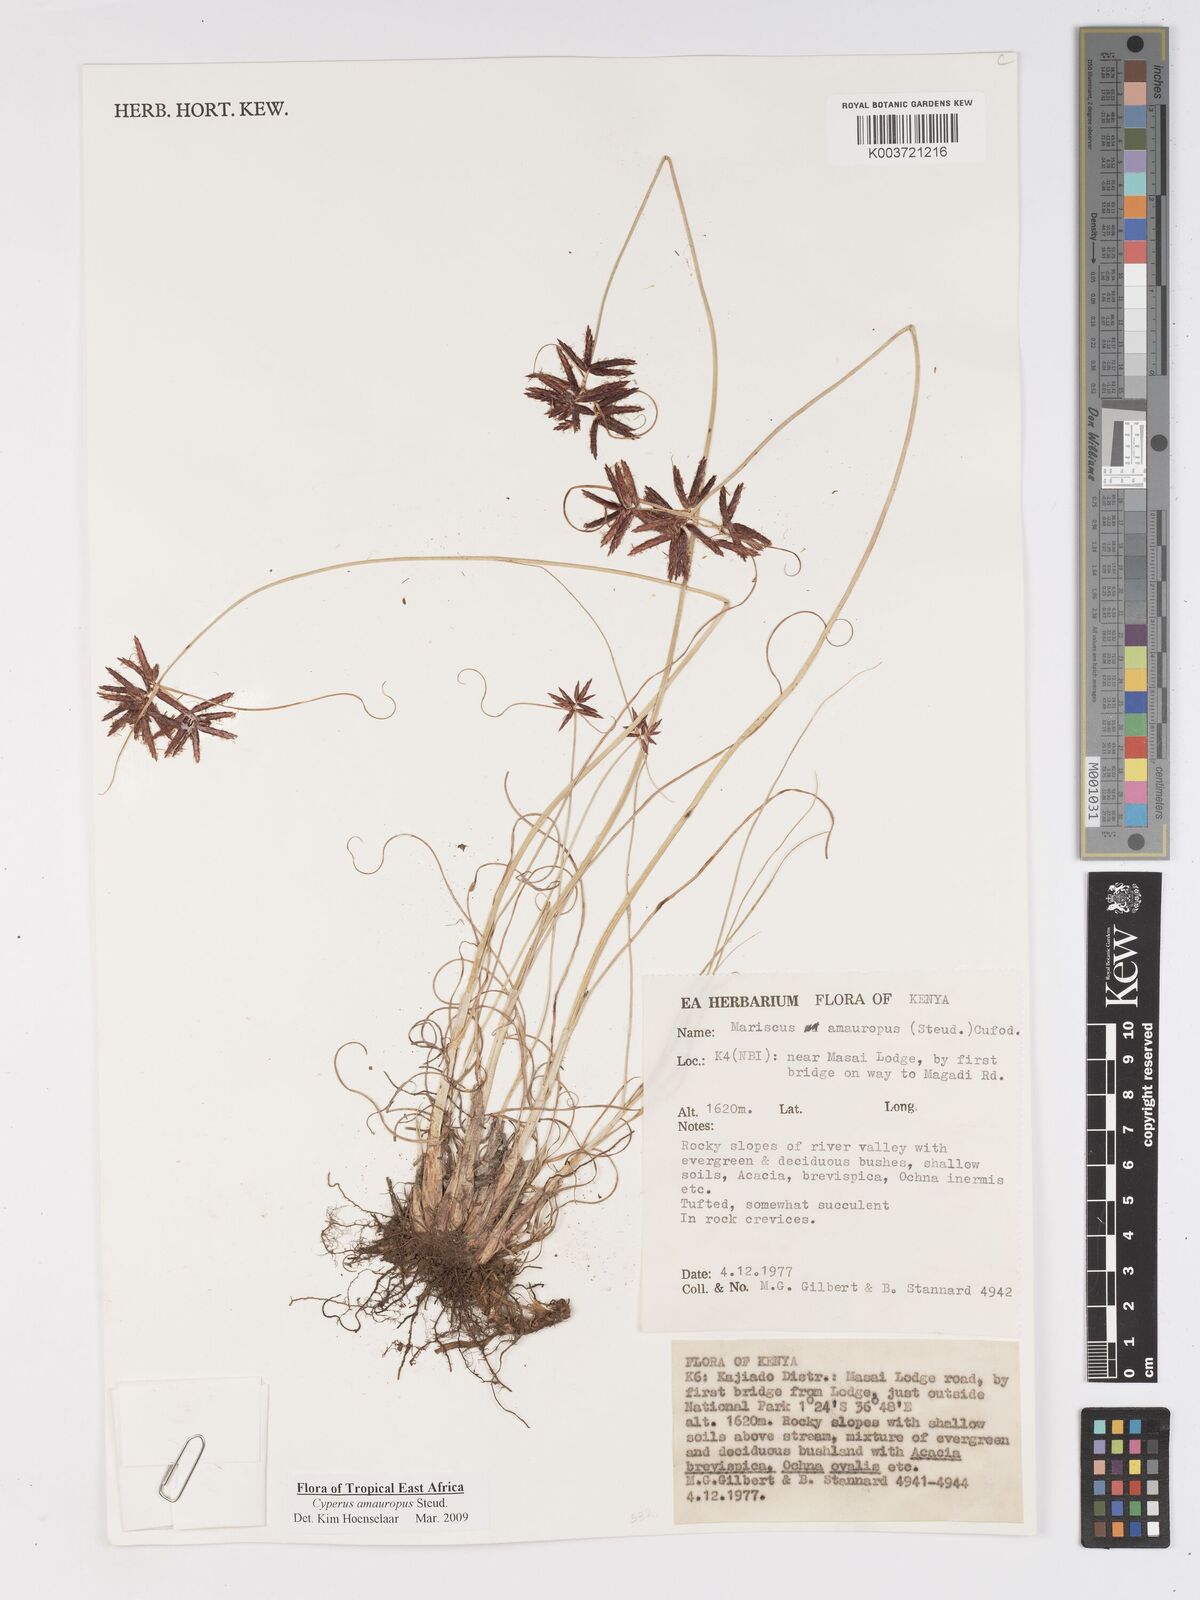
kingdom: Plantae
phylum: Tracheophyta
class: Liliopsida
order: Poales
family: Cyperaceae
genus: Cyperus
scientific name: Cyperus amauropus
